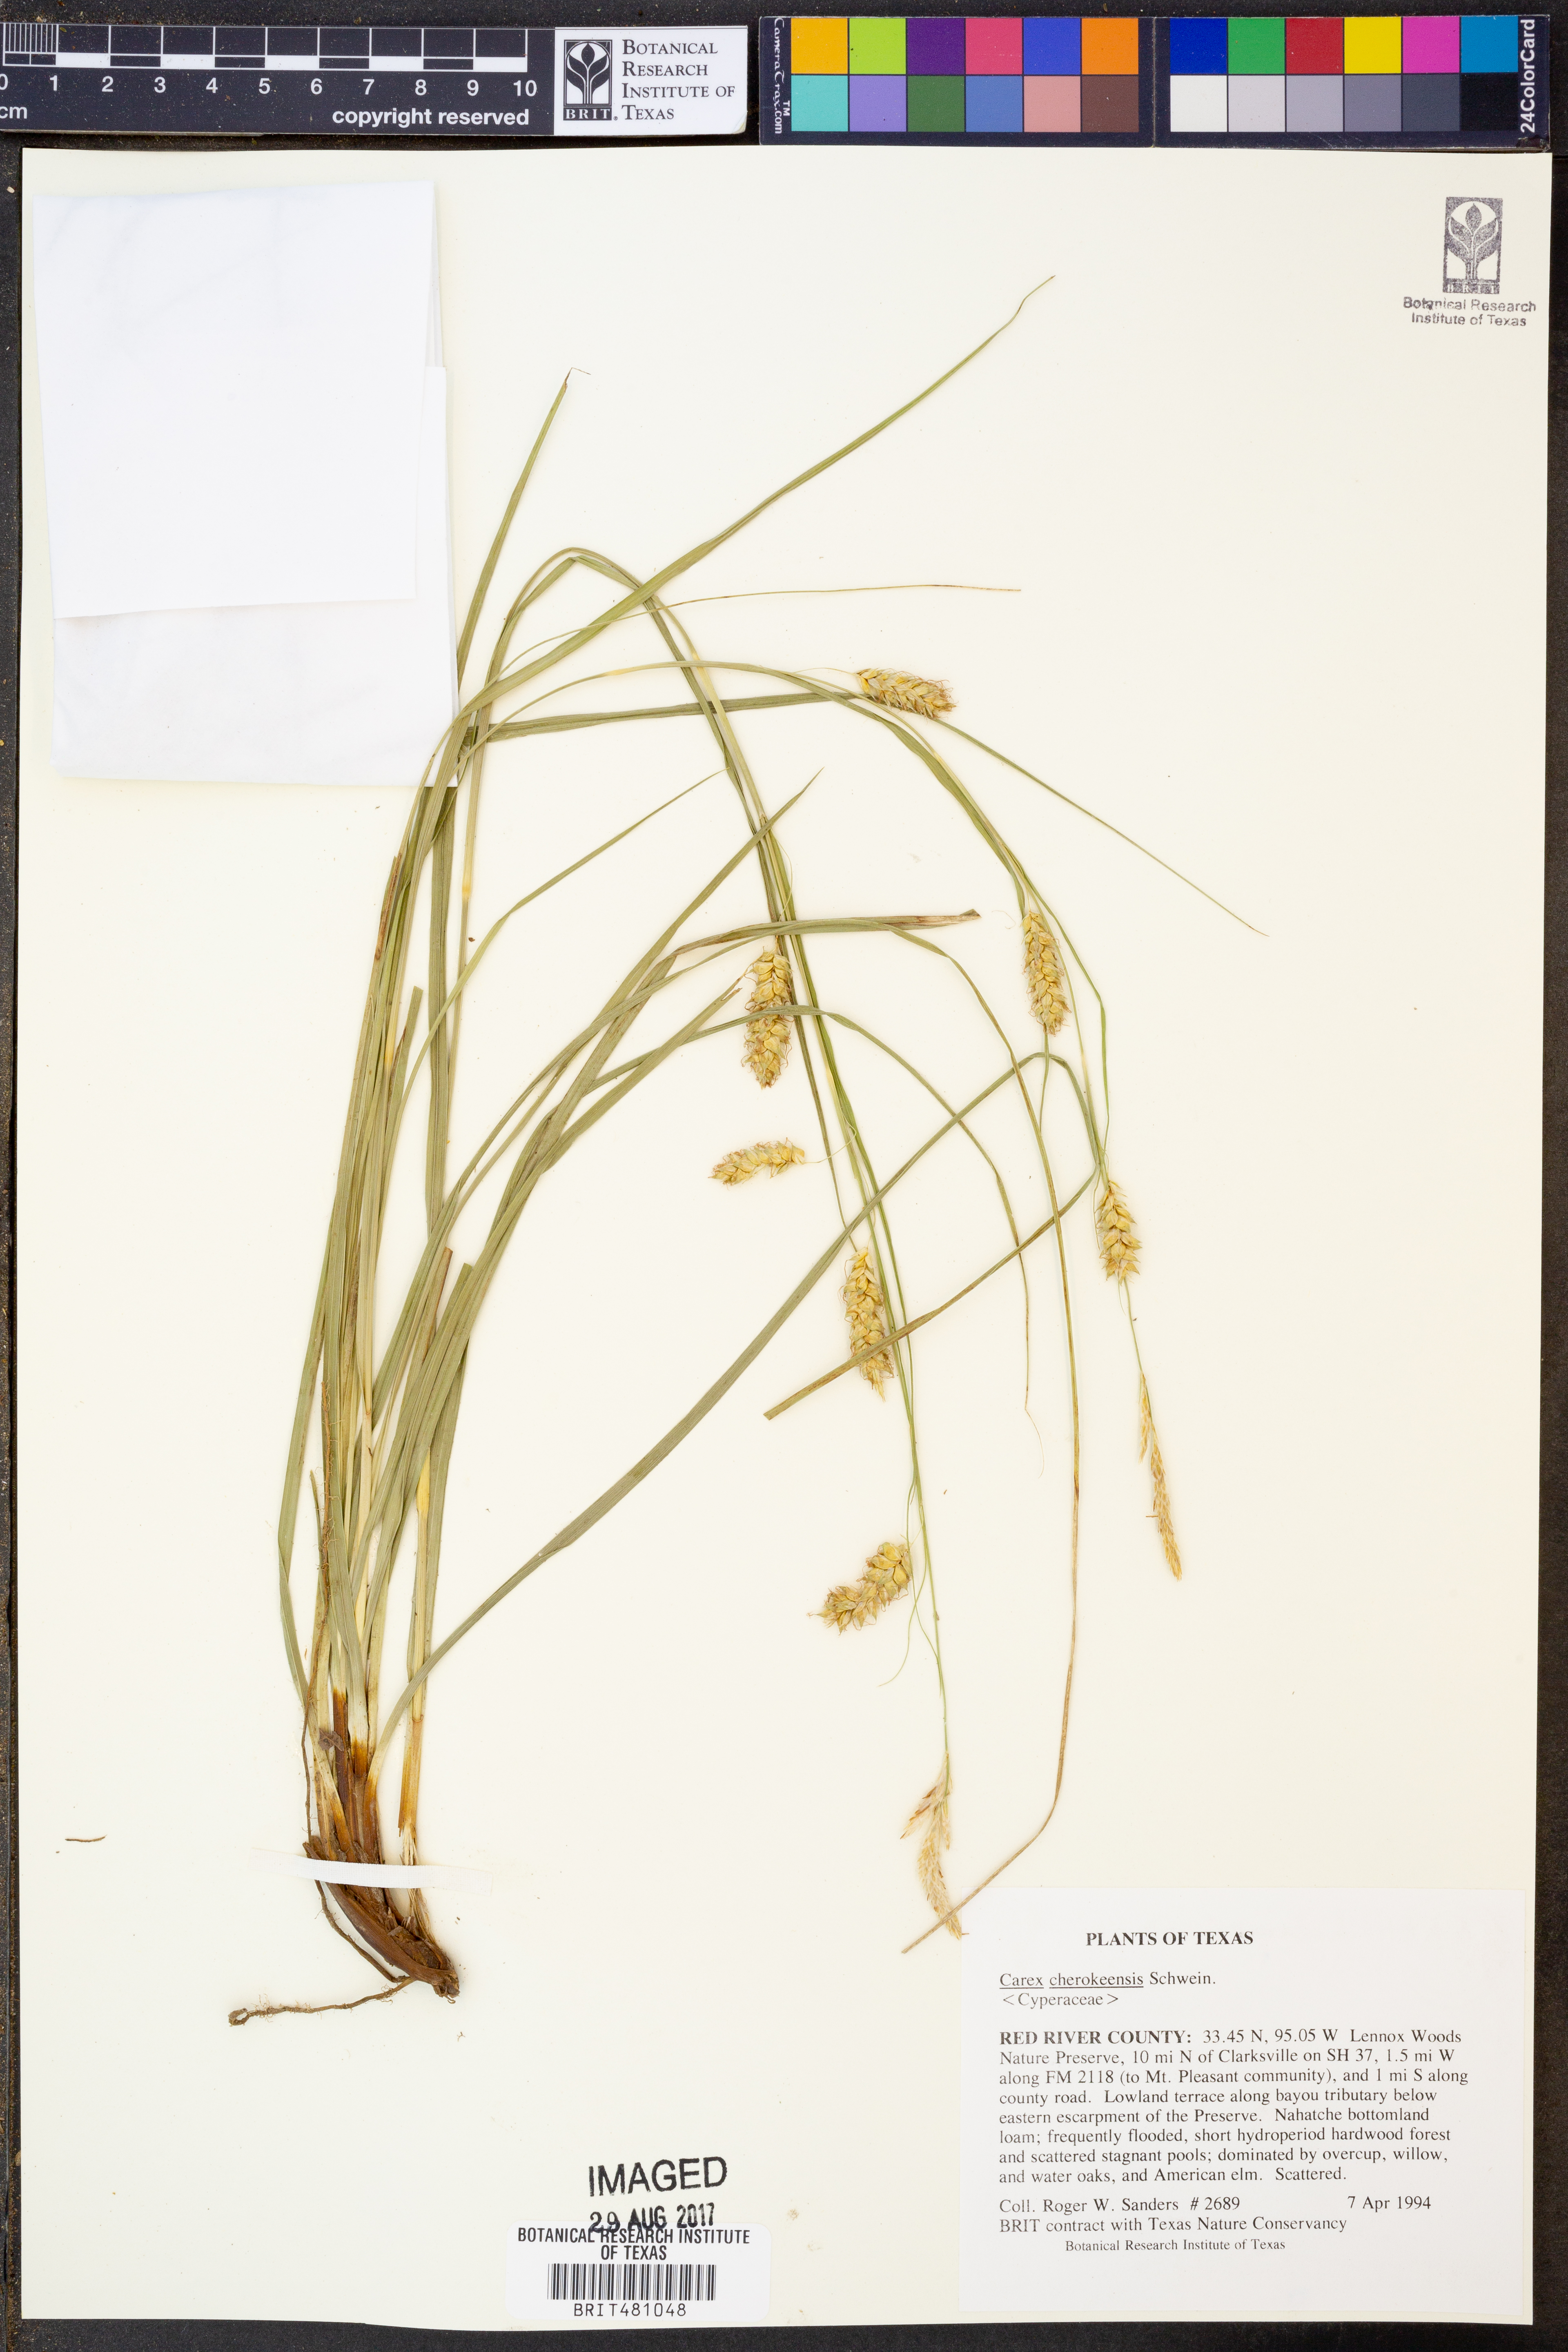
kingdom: Plantae
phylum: Tracheophyta
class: Liliopsida
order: Poales
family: Cyperaceae
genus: Carex
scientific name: Carex cherokeensis
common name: Cherokee sedge
